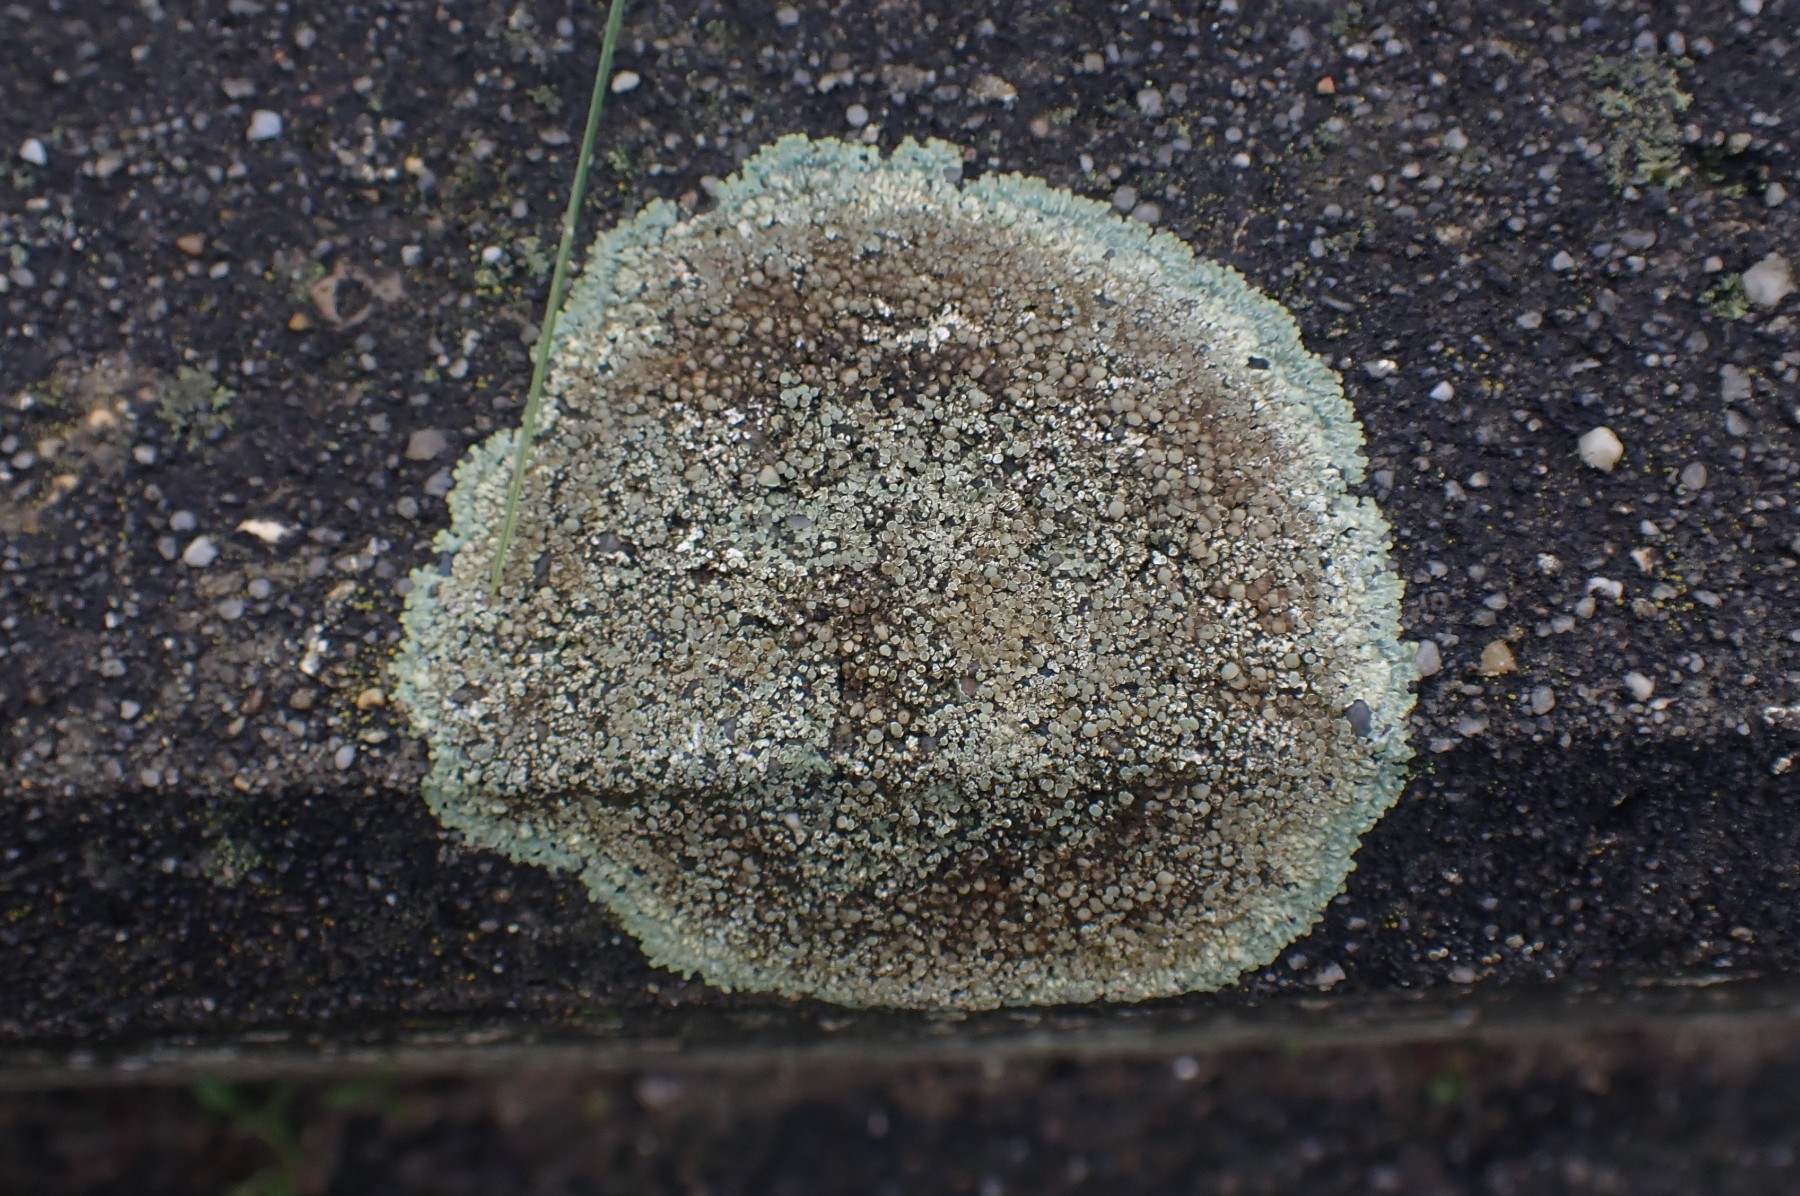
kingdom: Fungi
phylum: Ascomycota
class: Lecanoromycetes
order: Lecanorales
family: Lecanoraceae
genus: Protoparmeliopsis
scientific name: Protoparmeliopsis muralis
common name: randfliget kantskivelav
